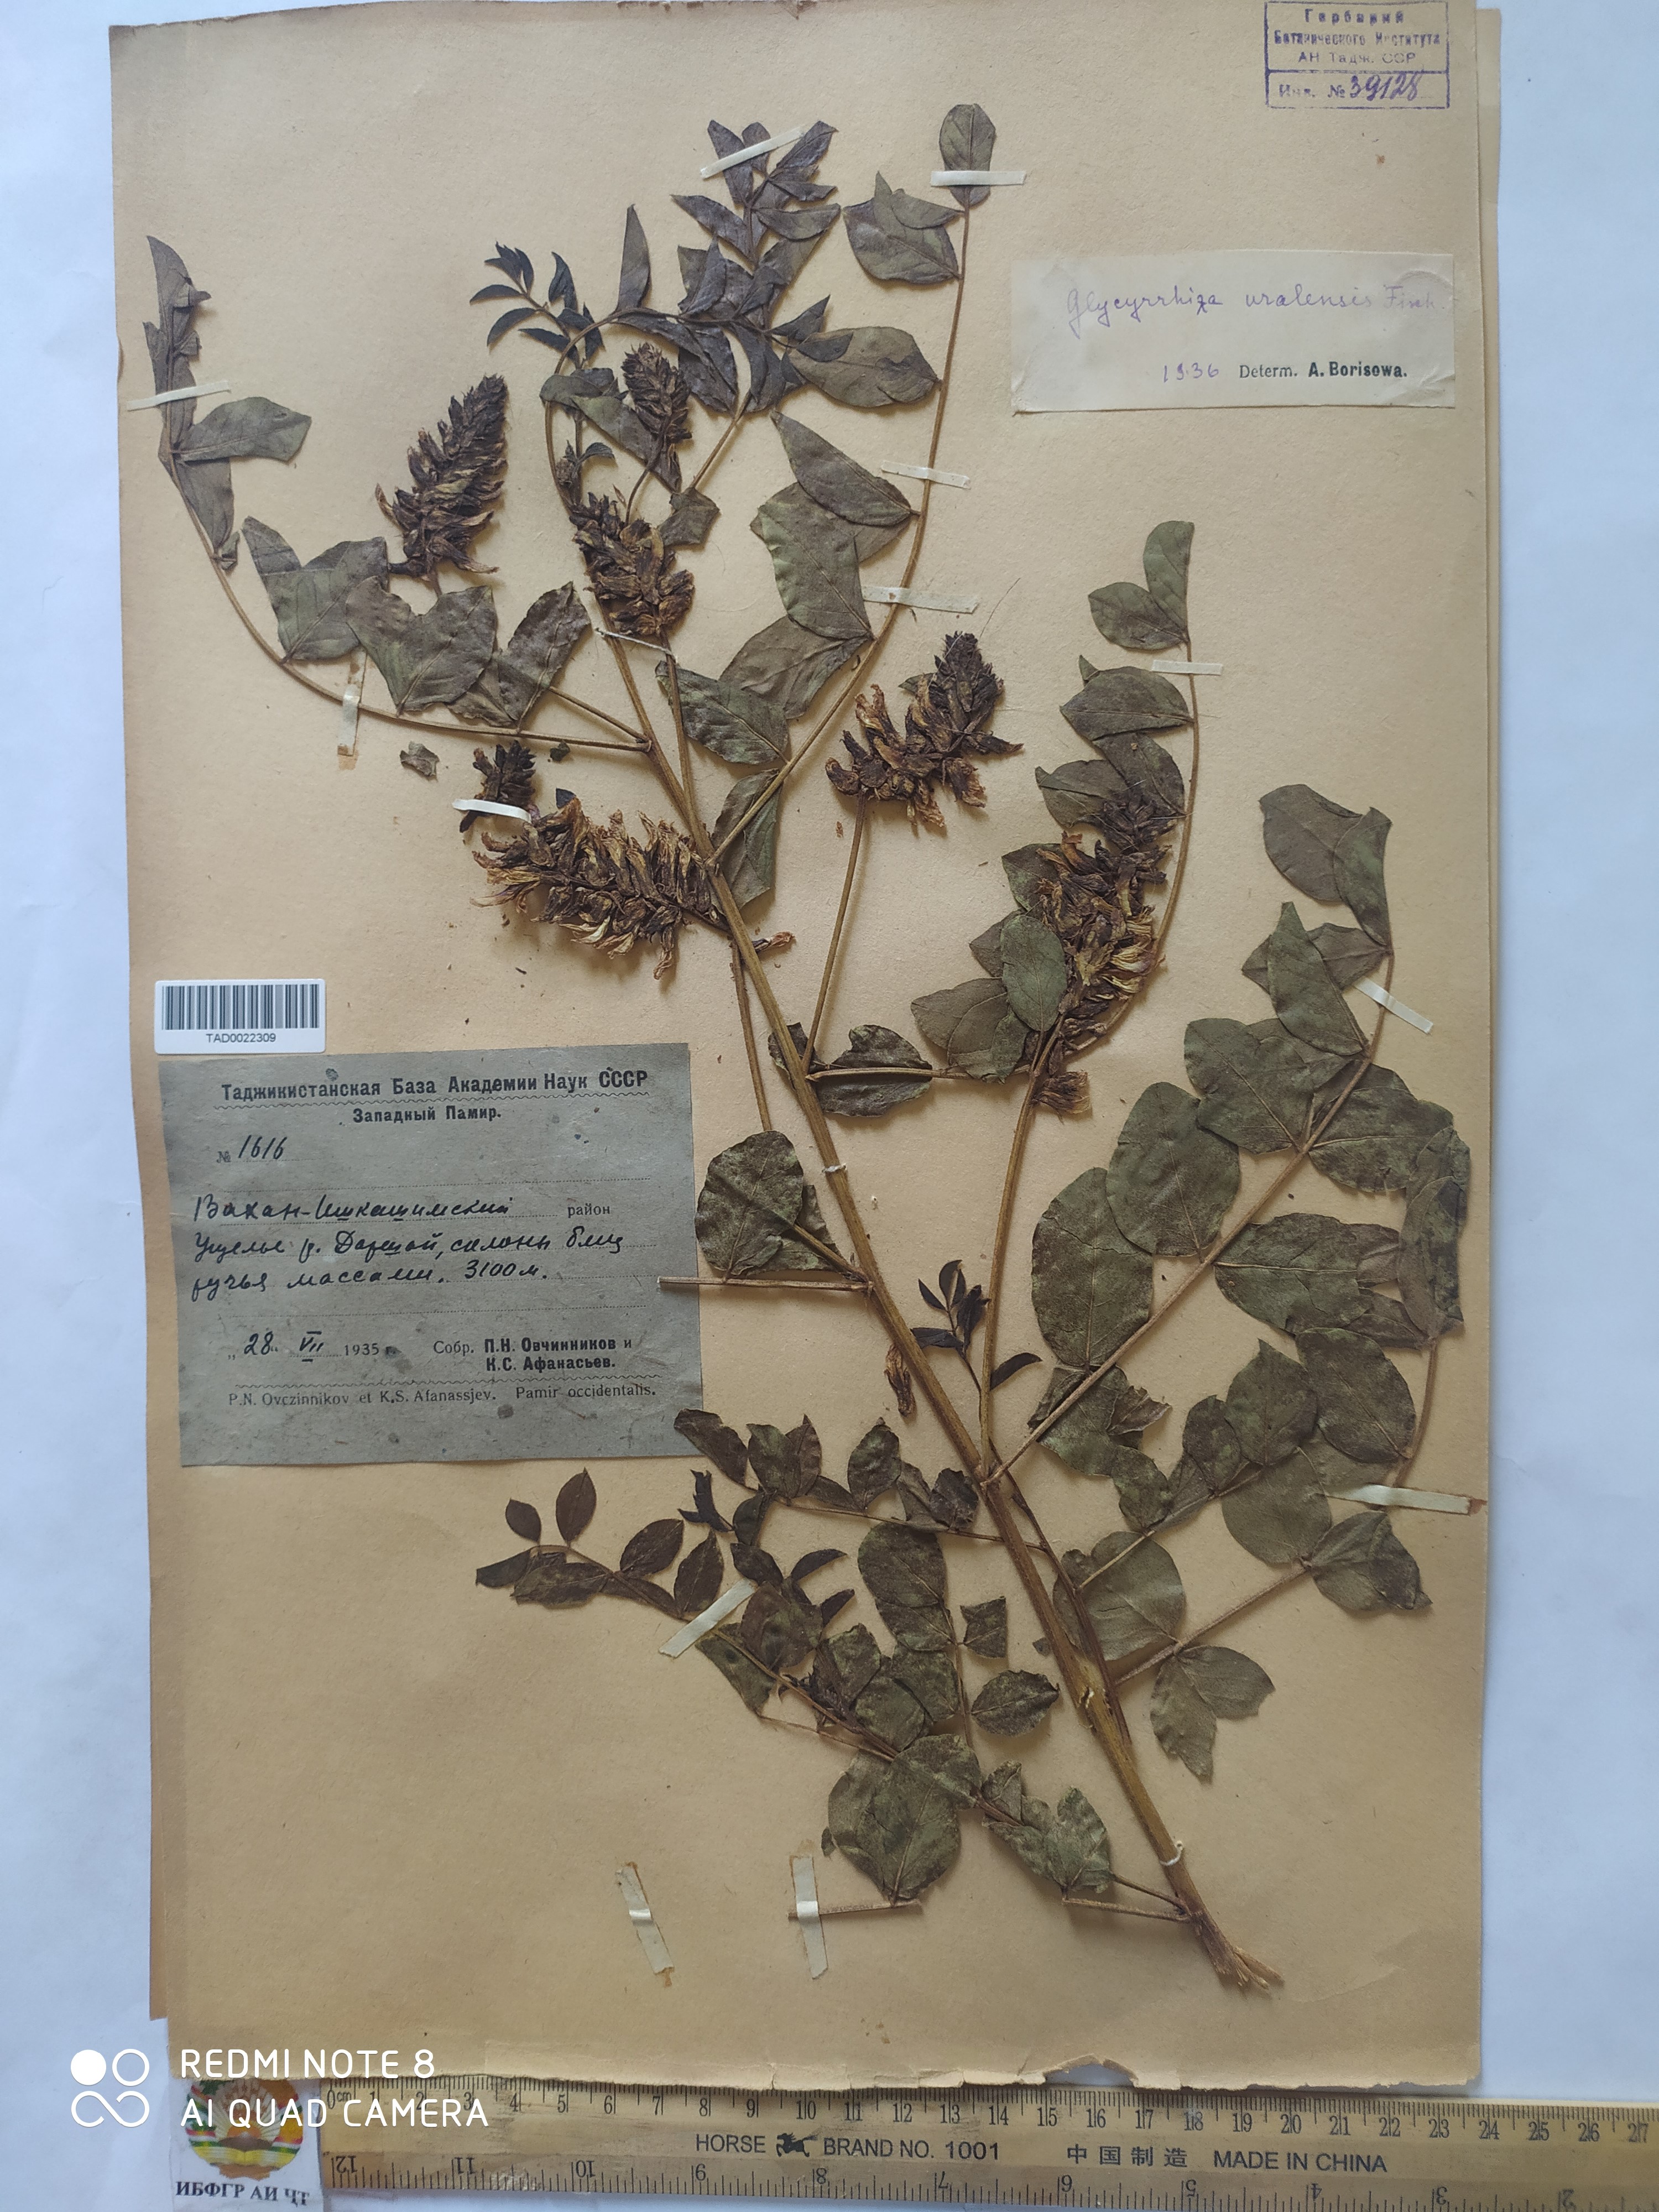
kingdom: Plantae
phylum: Tracheophyta
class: Magnoliopsida
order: Fabales
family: Fabaceae
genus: Glycyrrhiza
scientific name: Glycyrrhiza uralensis
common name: Chinese licorice
